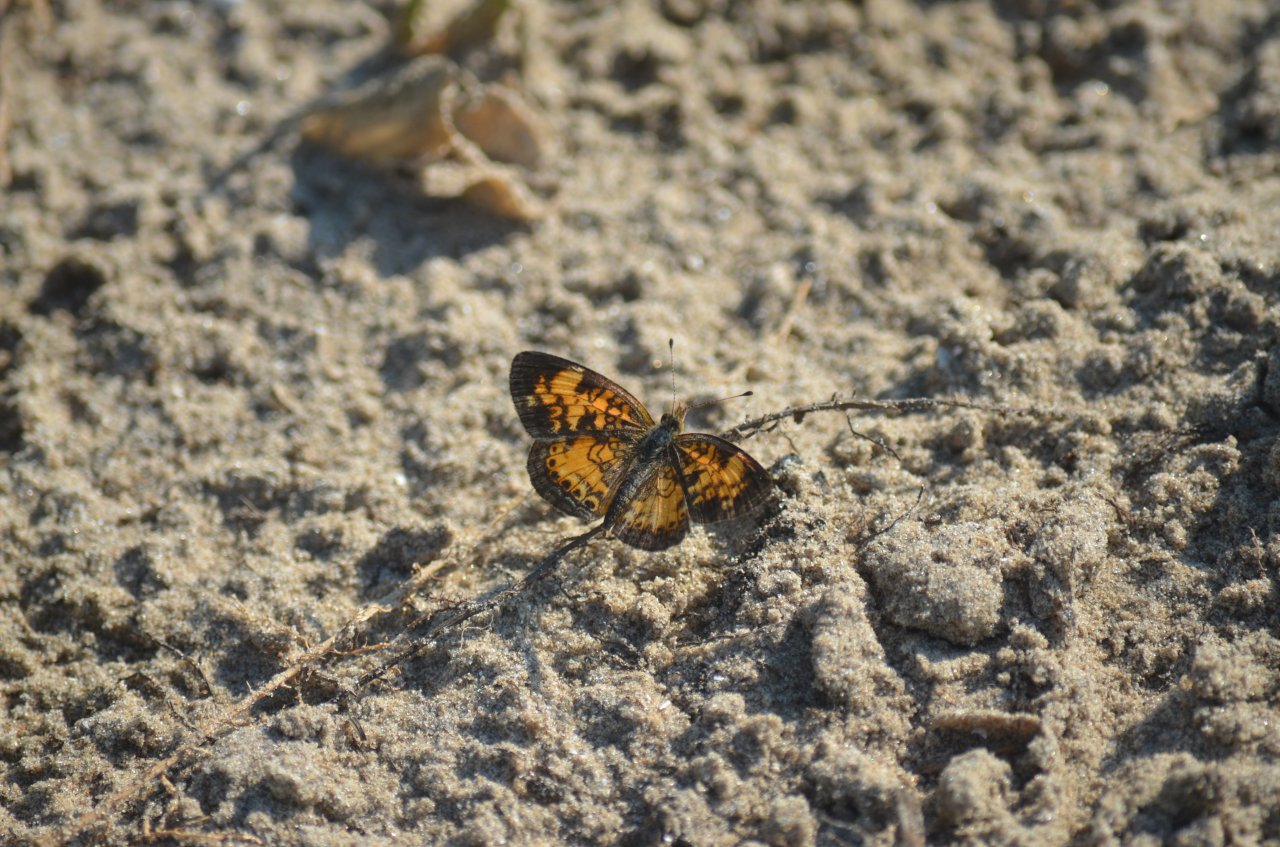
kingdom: Animalia
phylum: Arthropoda
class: Insecta
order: Lepidoptera
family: Nymphalidae
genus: Phyciodes
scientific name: Phyciodes tharos
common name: Pearl Crescent
